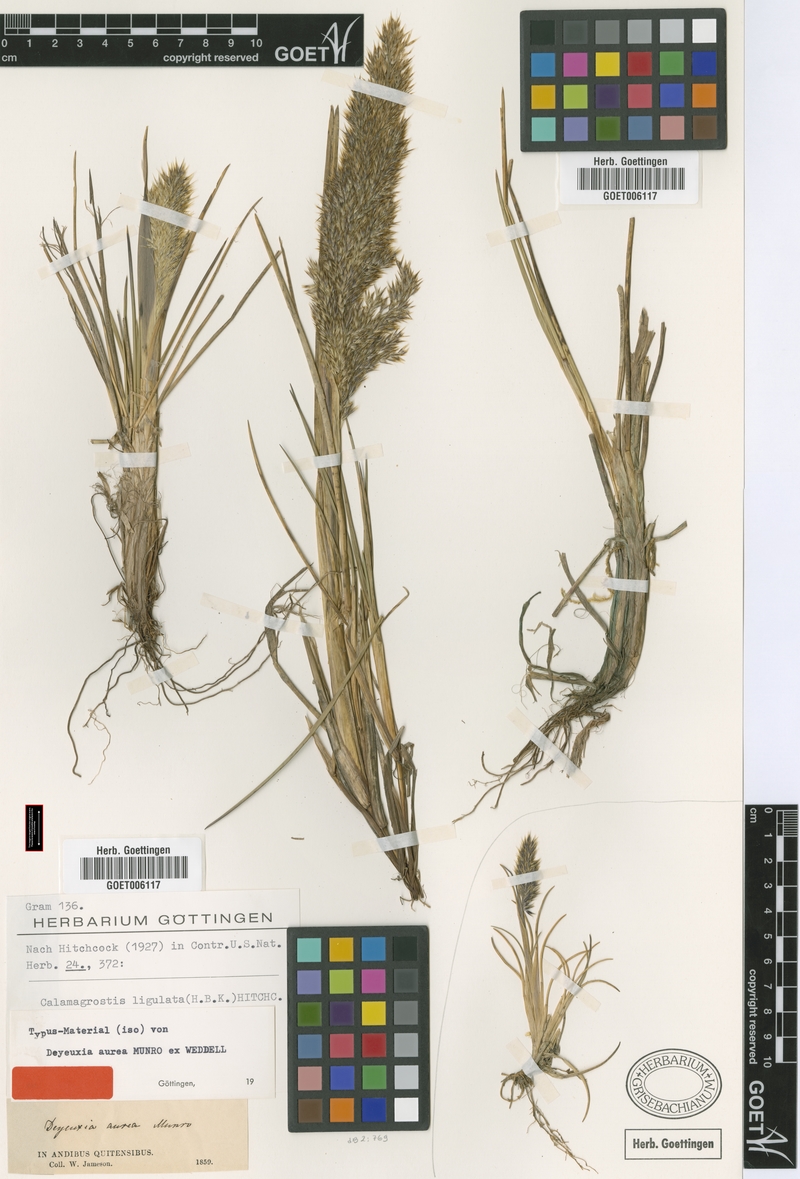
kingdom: Plantae
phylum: Tracheophyta
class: Liliopsida
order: Poales
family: Poaceae
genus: Calamagrostis
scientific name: Calamagrostis ligulata
